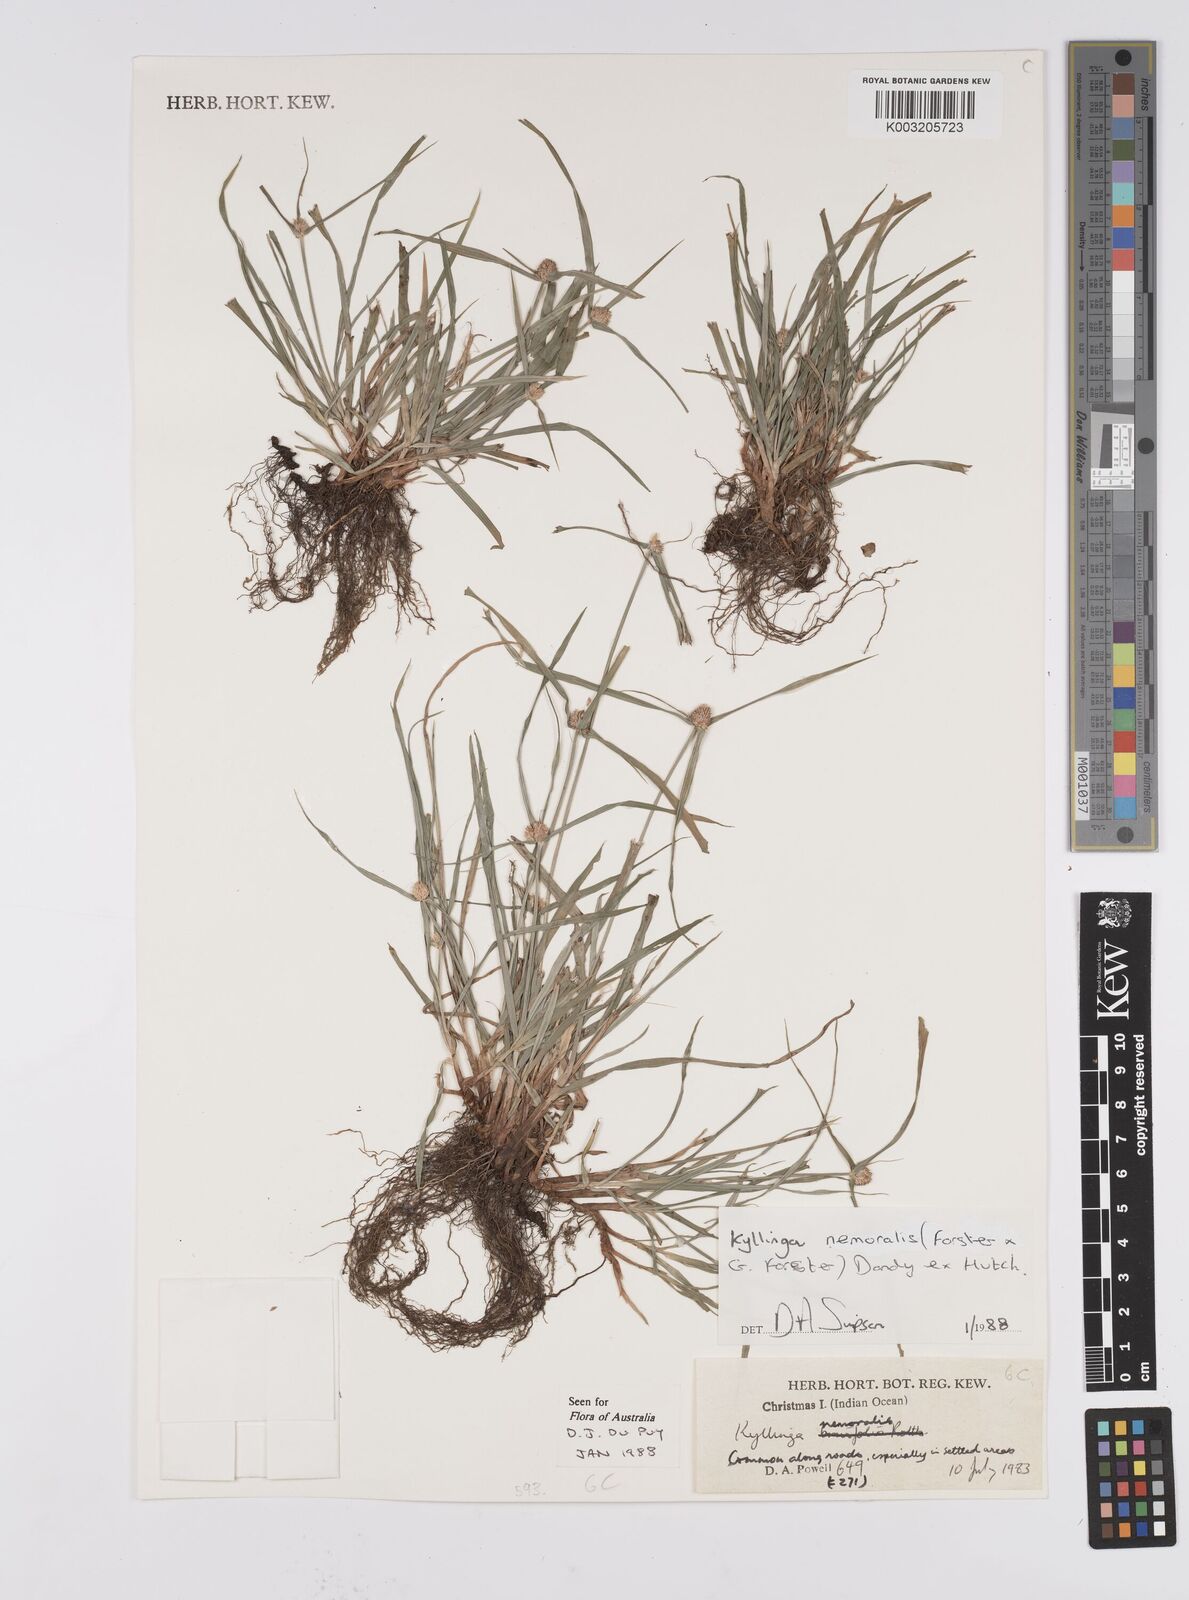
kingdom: Plantae
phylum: Tracheophyta
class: Liliopsida
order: Poales
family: Cyperaceae
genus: Cyperus
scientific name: Cyperus nemoralis
